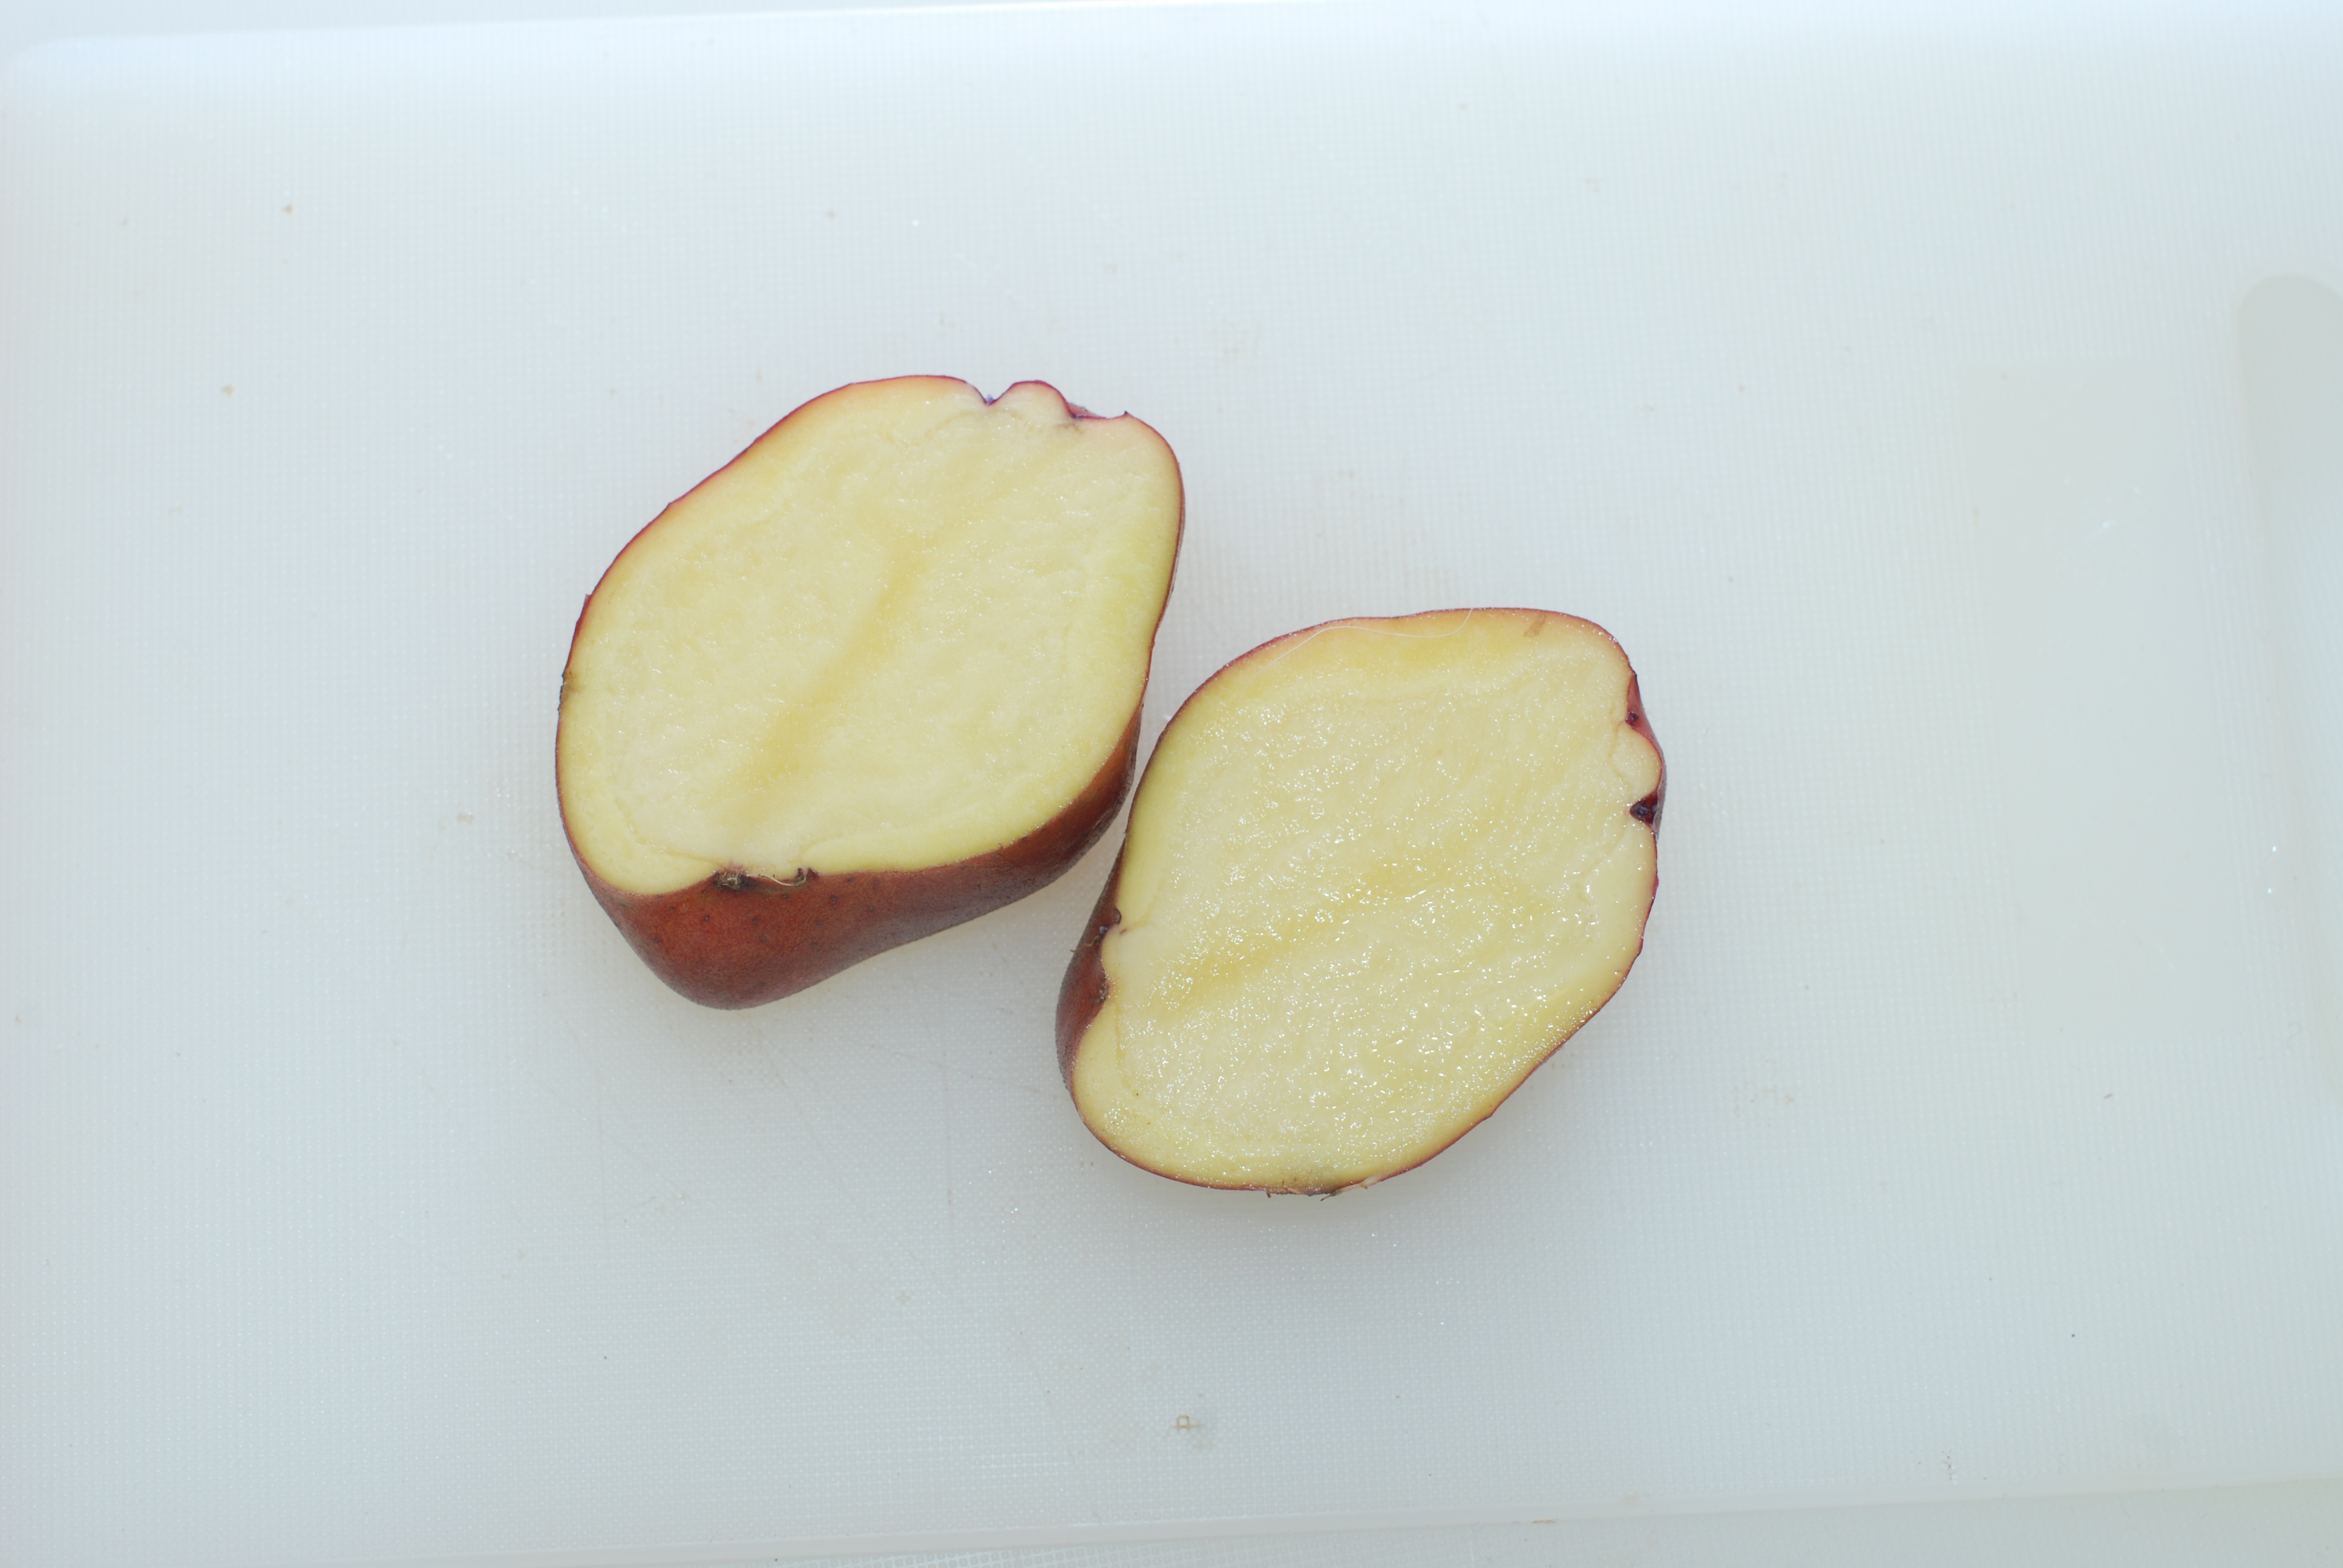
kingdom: Plantae
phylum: Tracheophyta
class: Magnoliopsida
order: Solanales
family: Solanaceae
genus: Solanum
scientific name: Solanum tuberosum
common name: Potato
